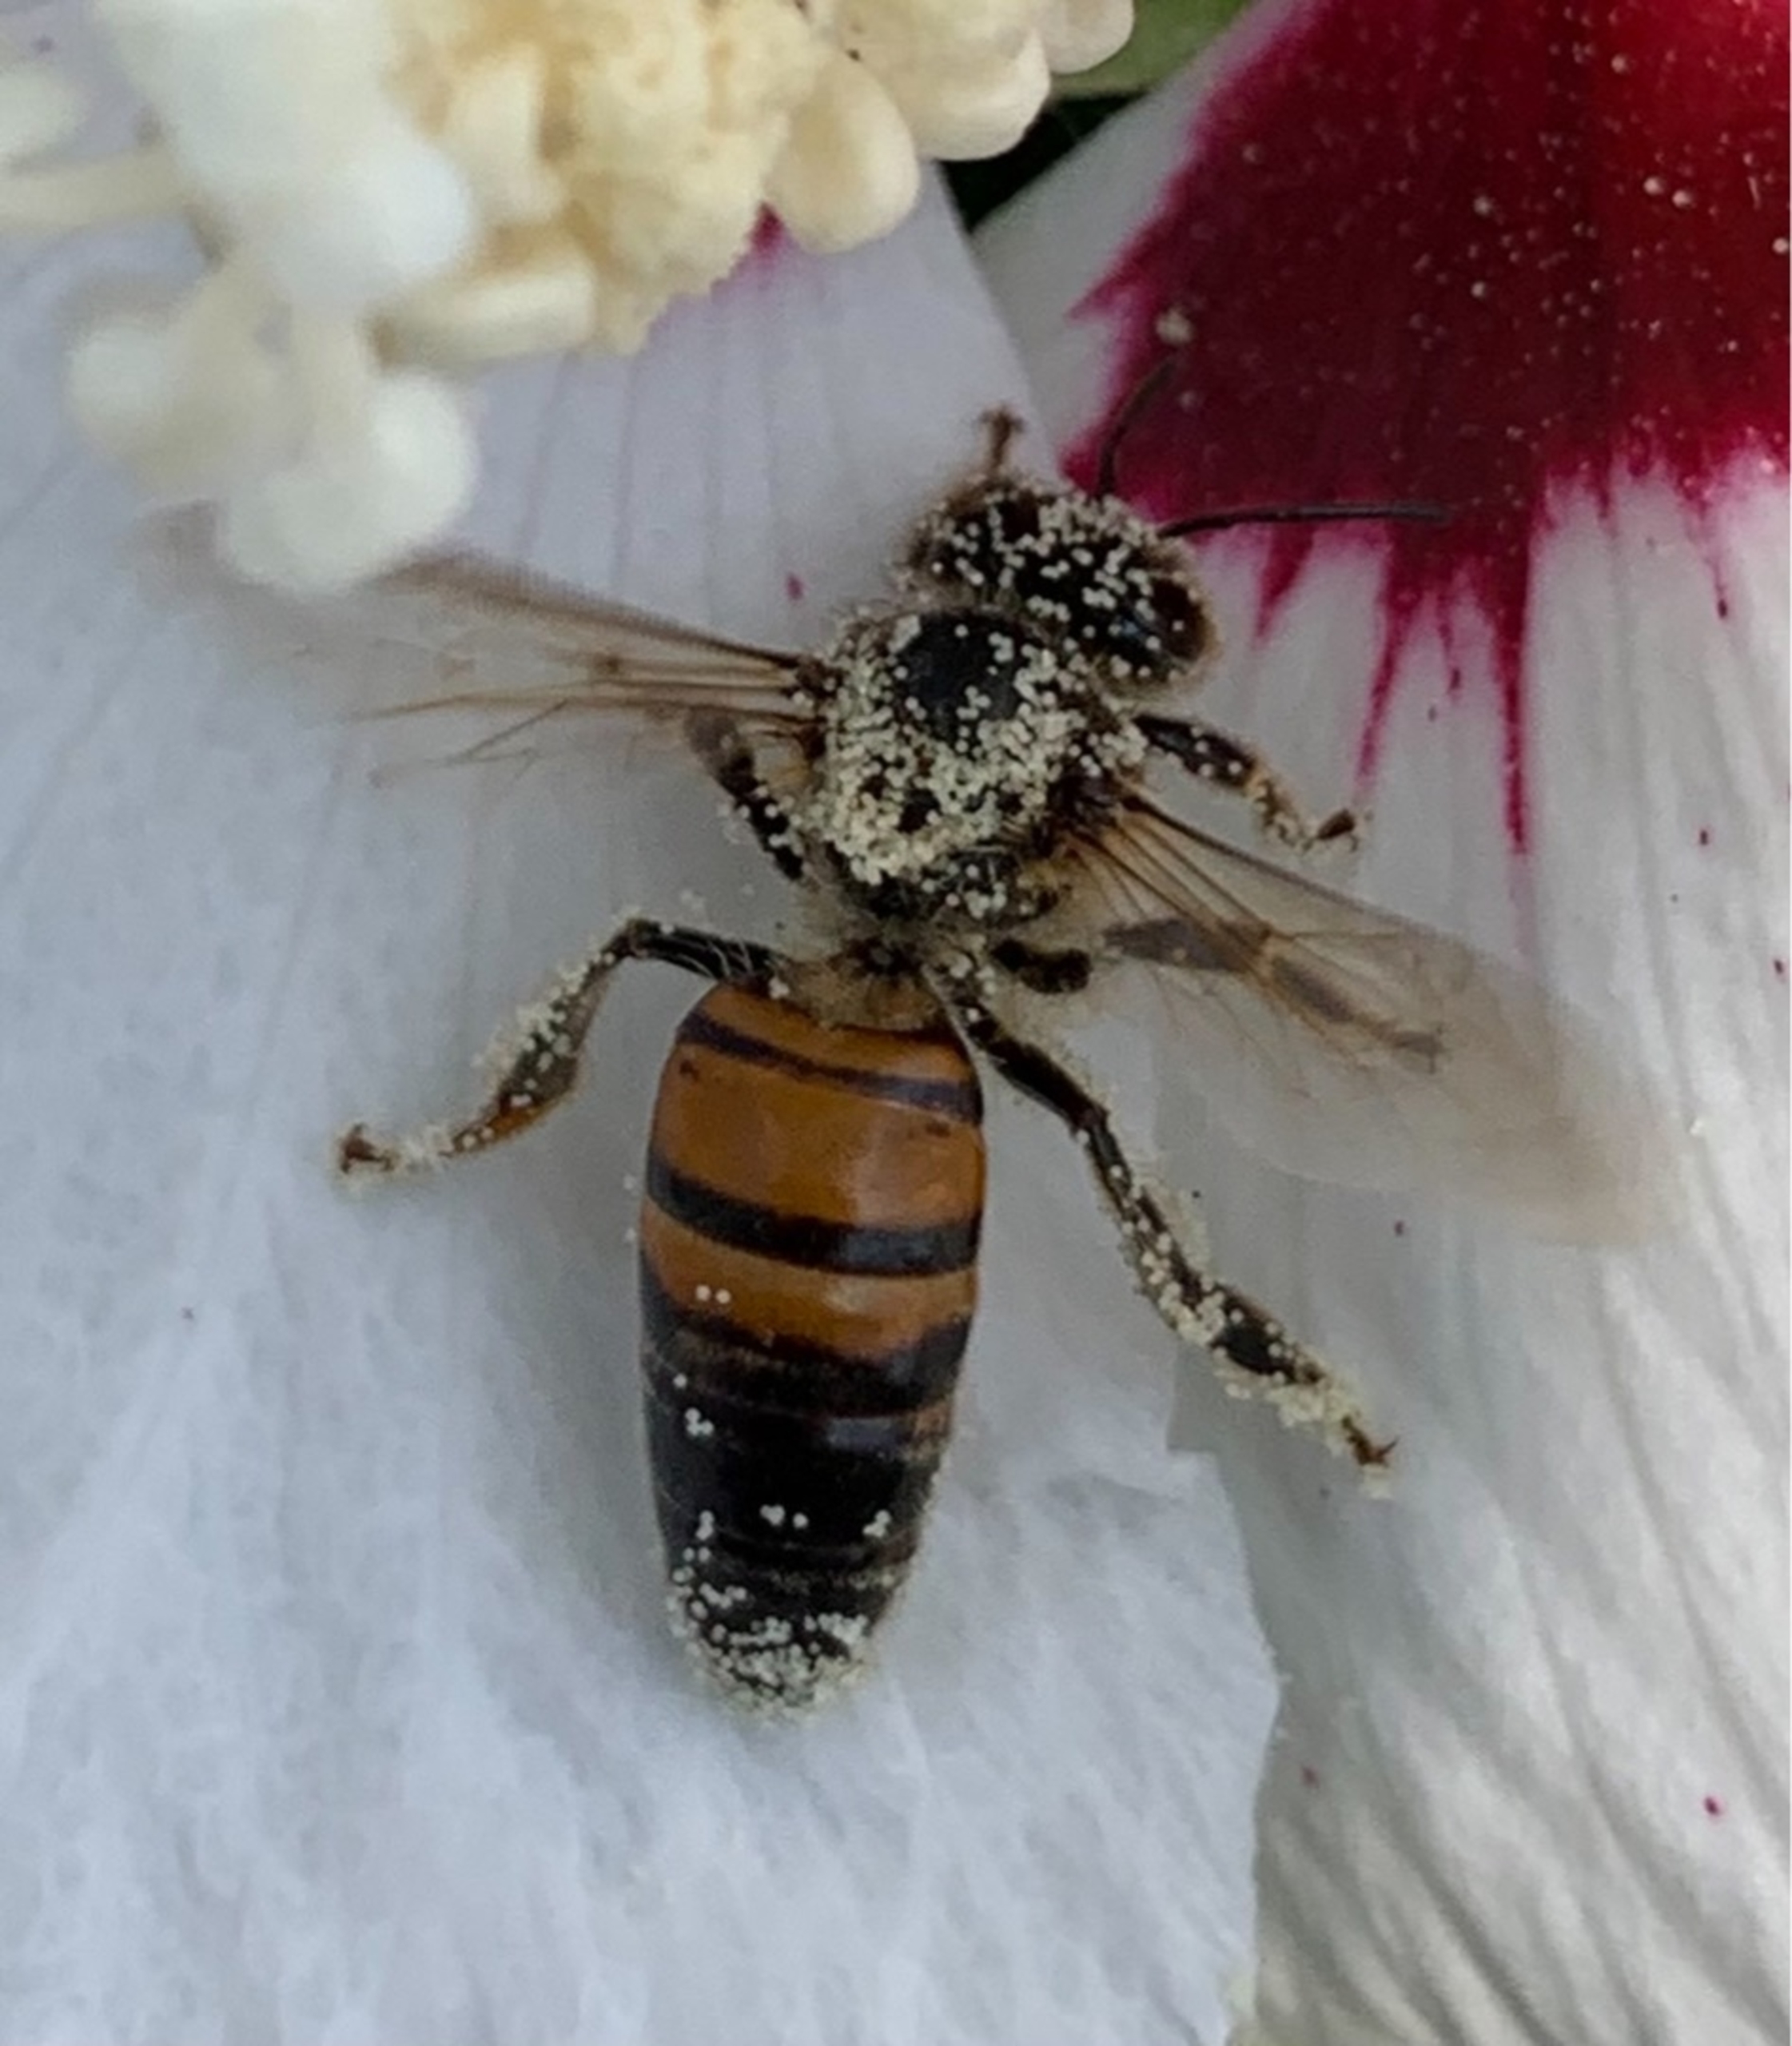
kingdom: Animalia
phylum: Arthropoda
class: Insecta
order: Hymenoptera
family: Apidae
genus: Apis
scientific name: Apis mellifera
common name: Honningbi
